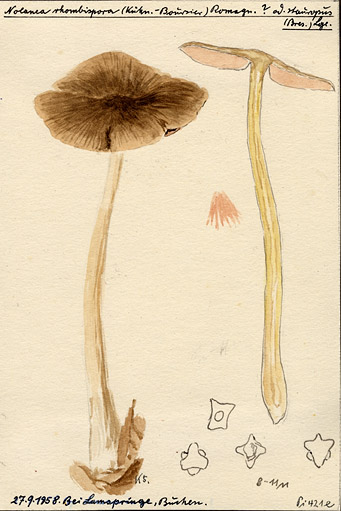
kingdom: Fungi
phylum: Basidiomycota
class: Agaricomycetes
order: Agaricales
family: Entolomataceae
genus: Entoloma
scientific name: Entoloma rhombisporum
